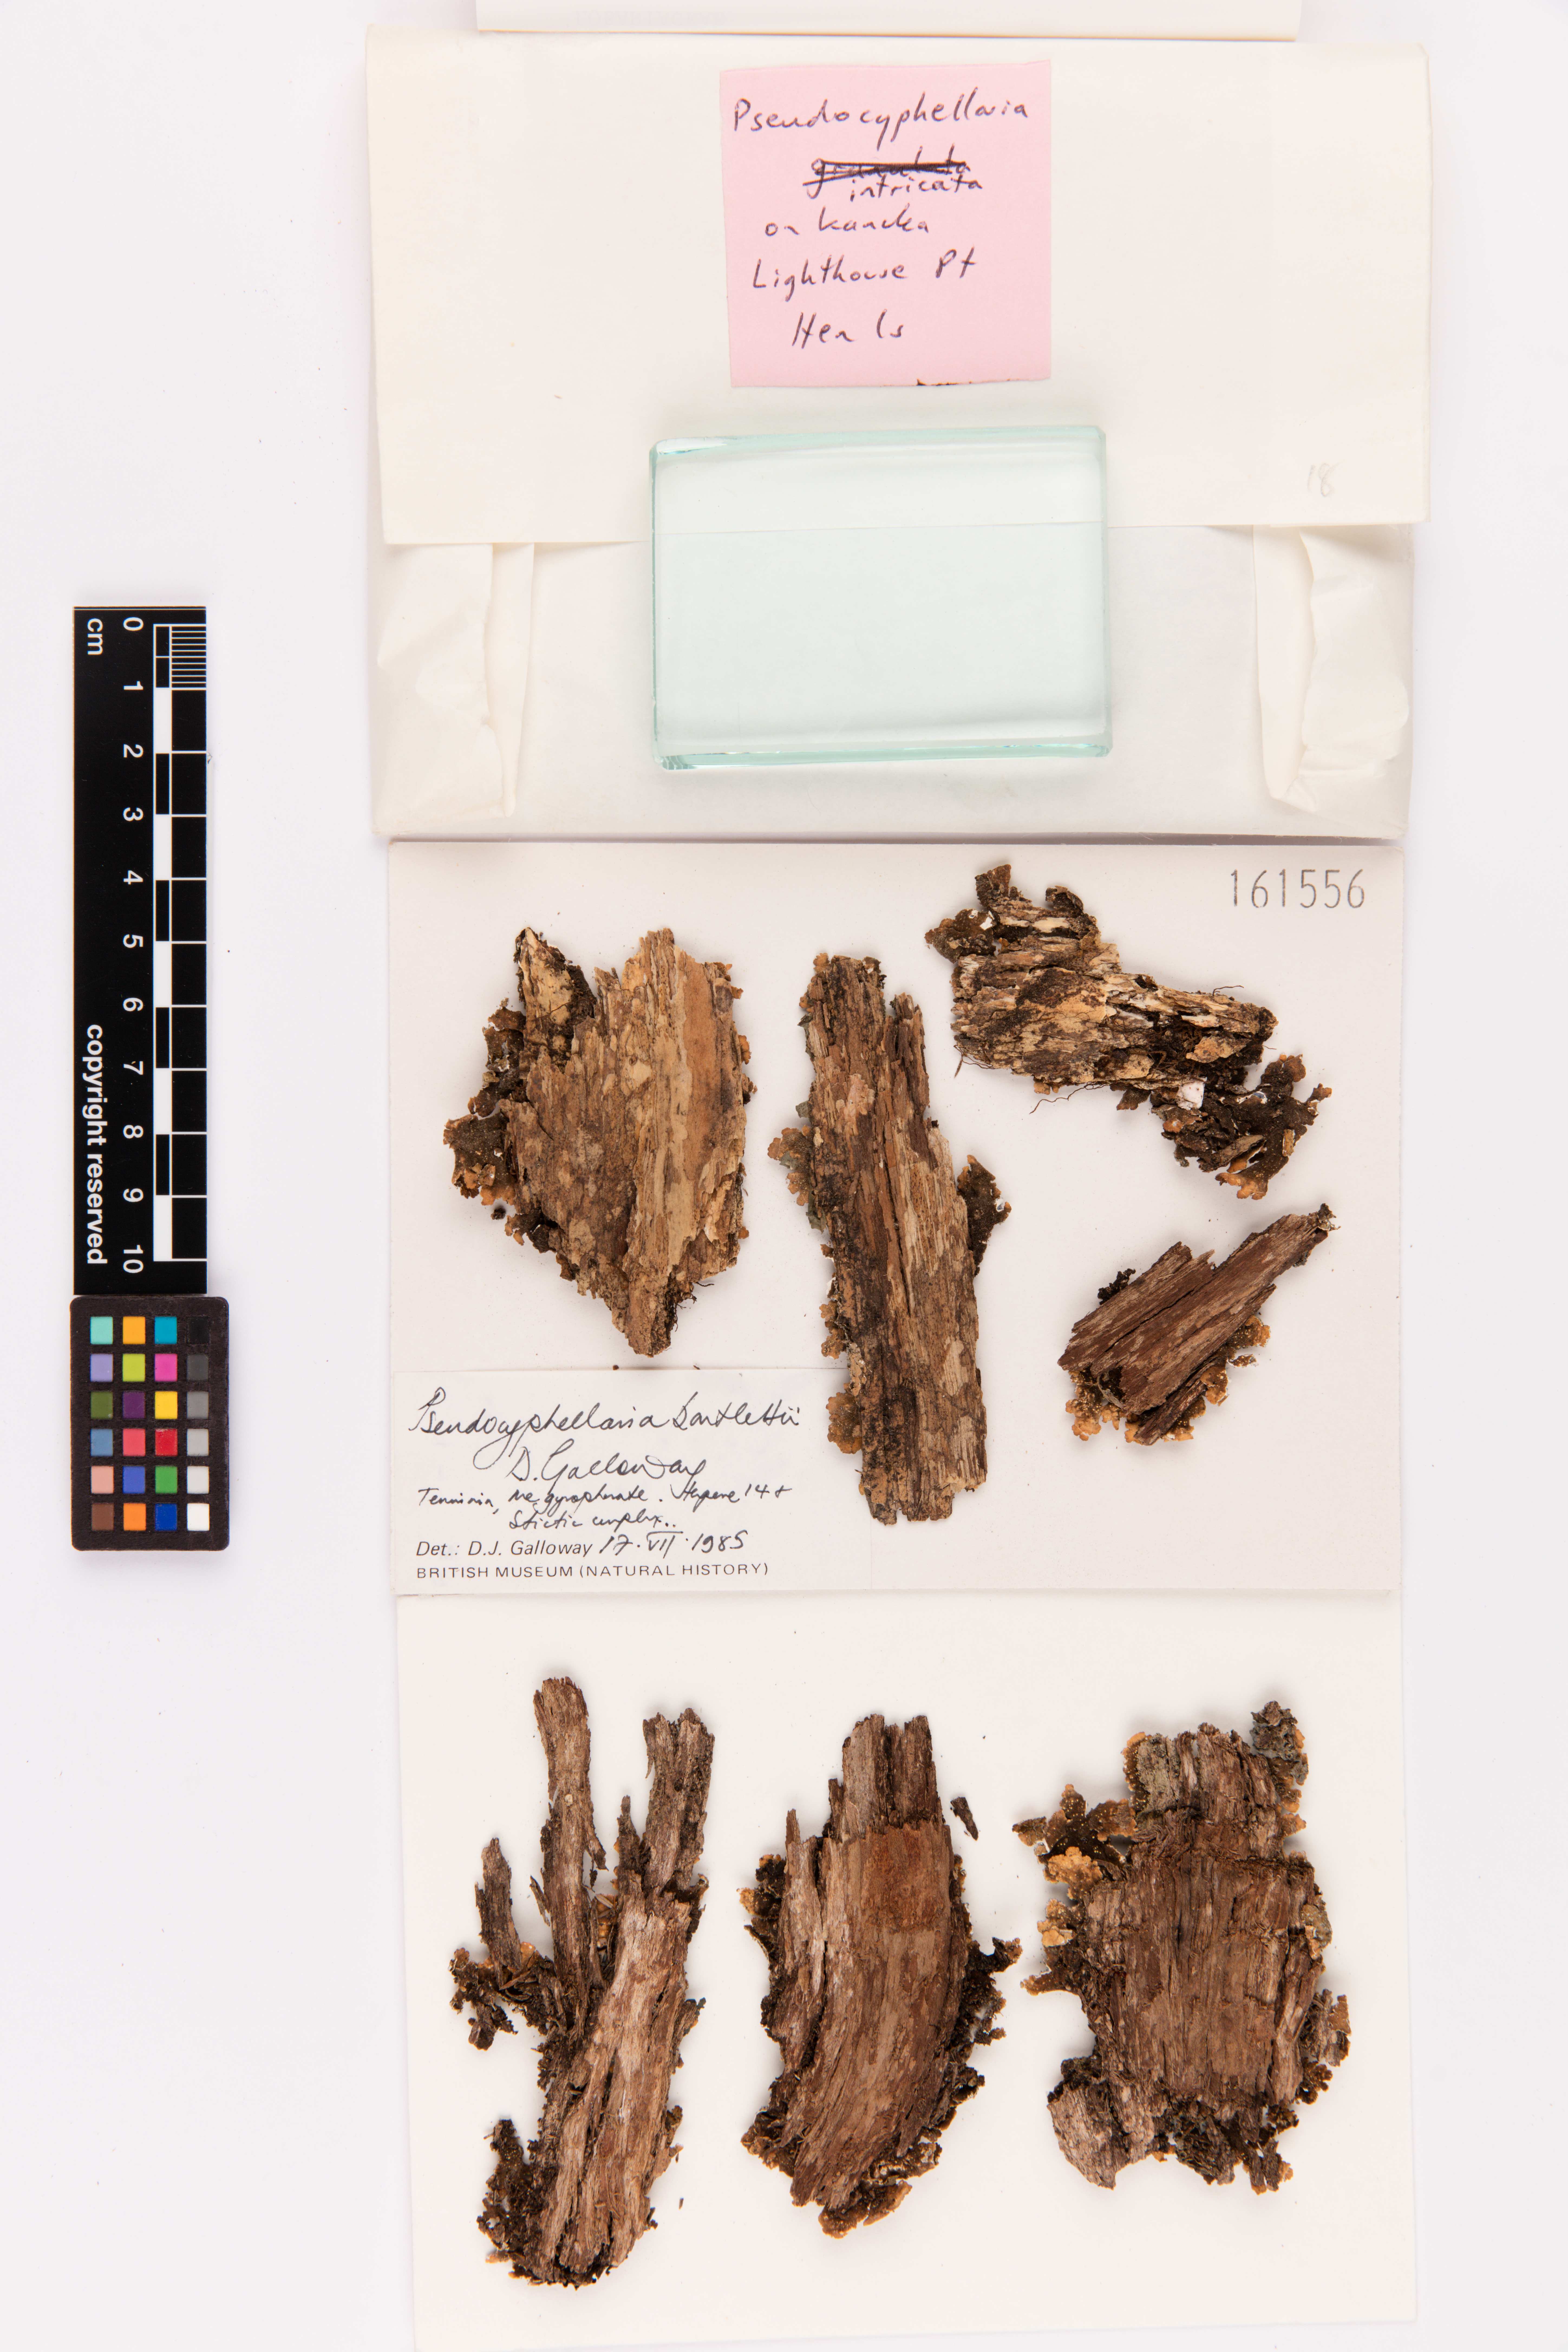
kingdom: Fungi
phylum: Ascomycota
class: Lecanoromycetes
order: Peltigerales
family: Lobariaceae
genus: Pseudocyphellaria
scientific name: Pseudocyphellaria bartlettii
